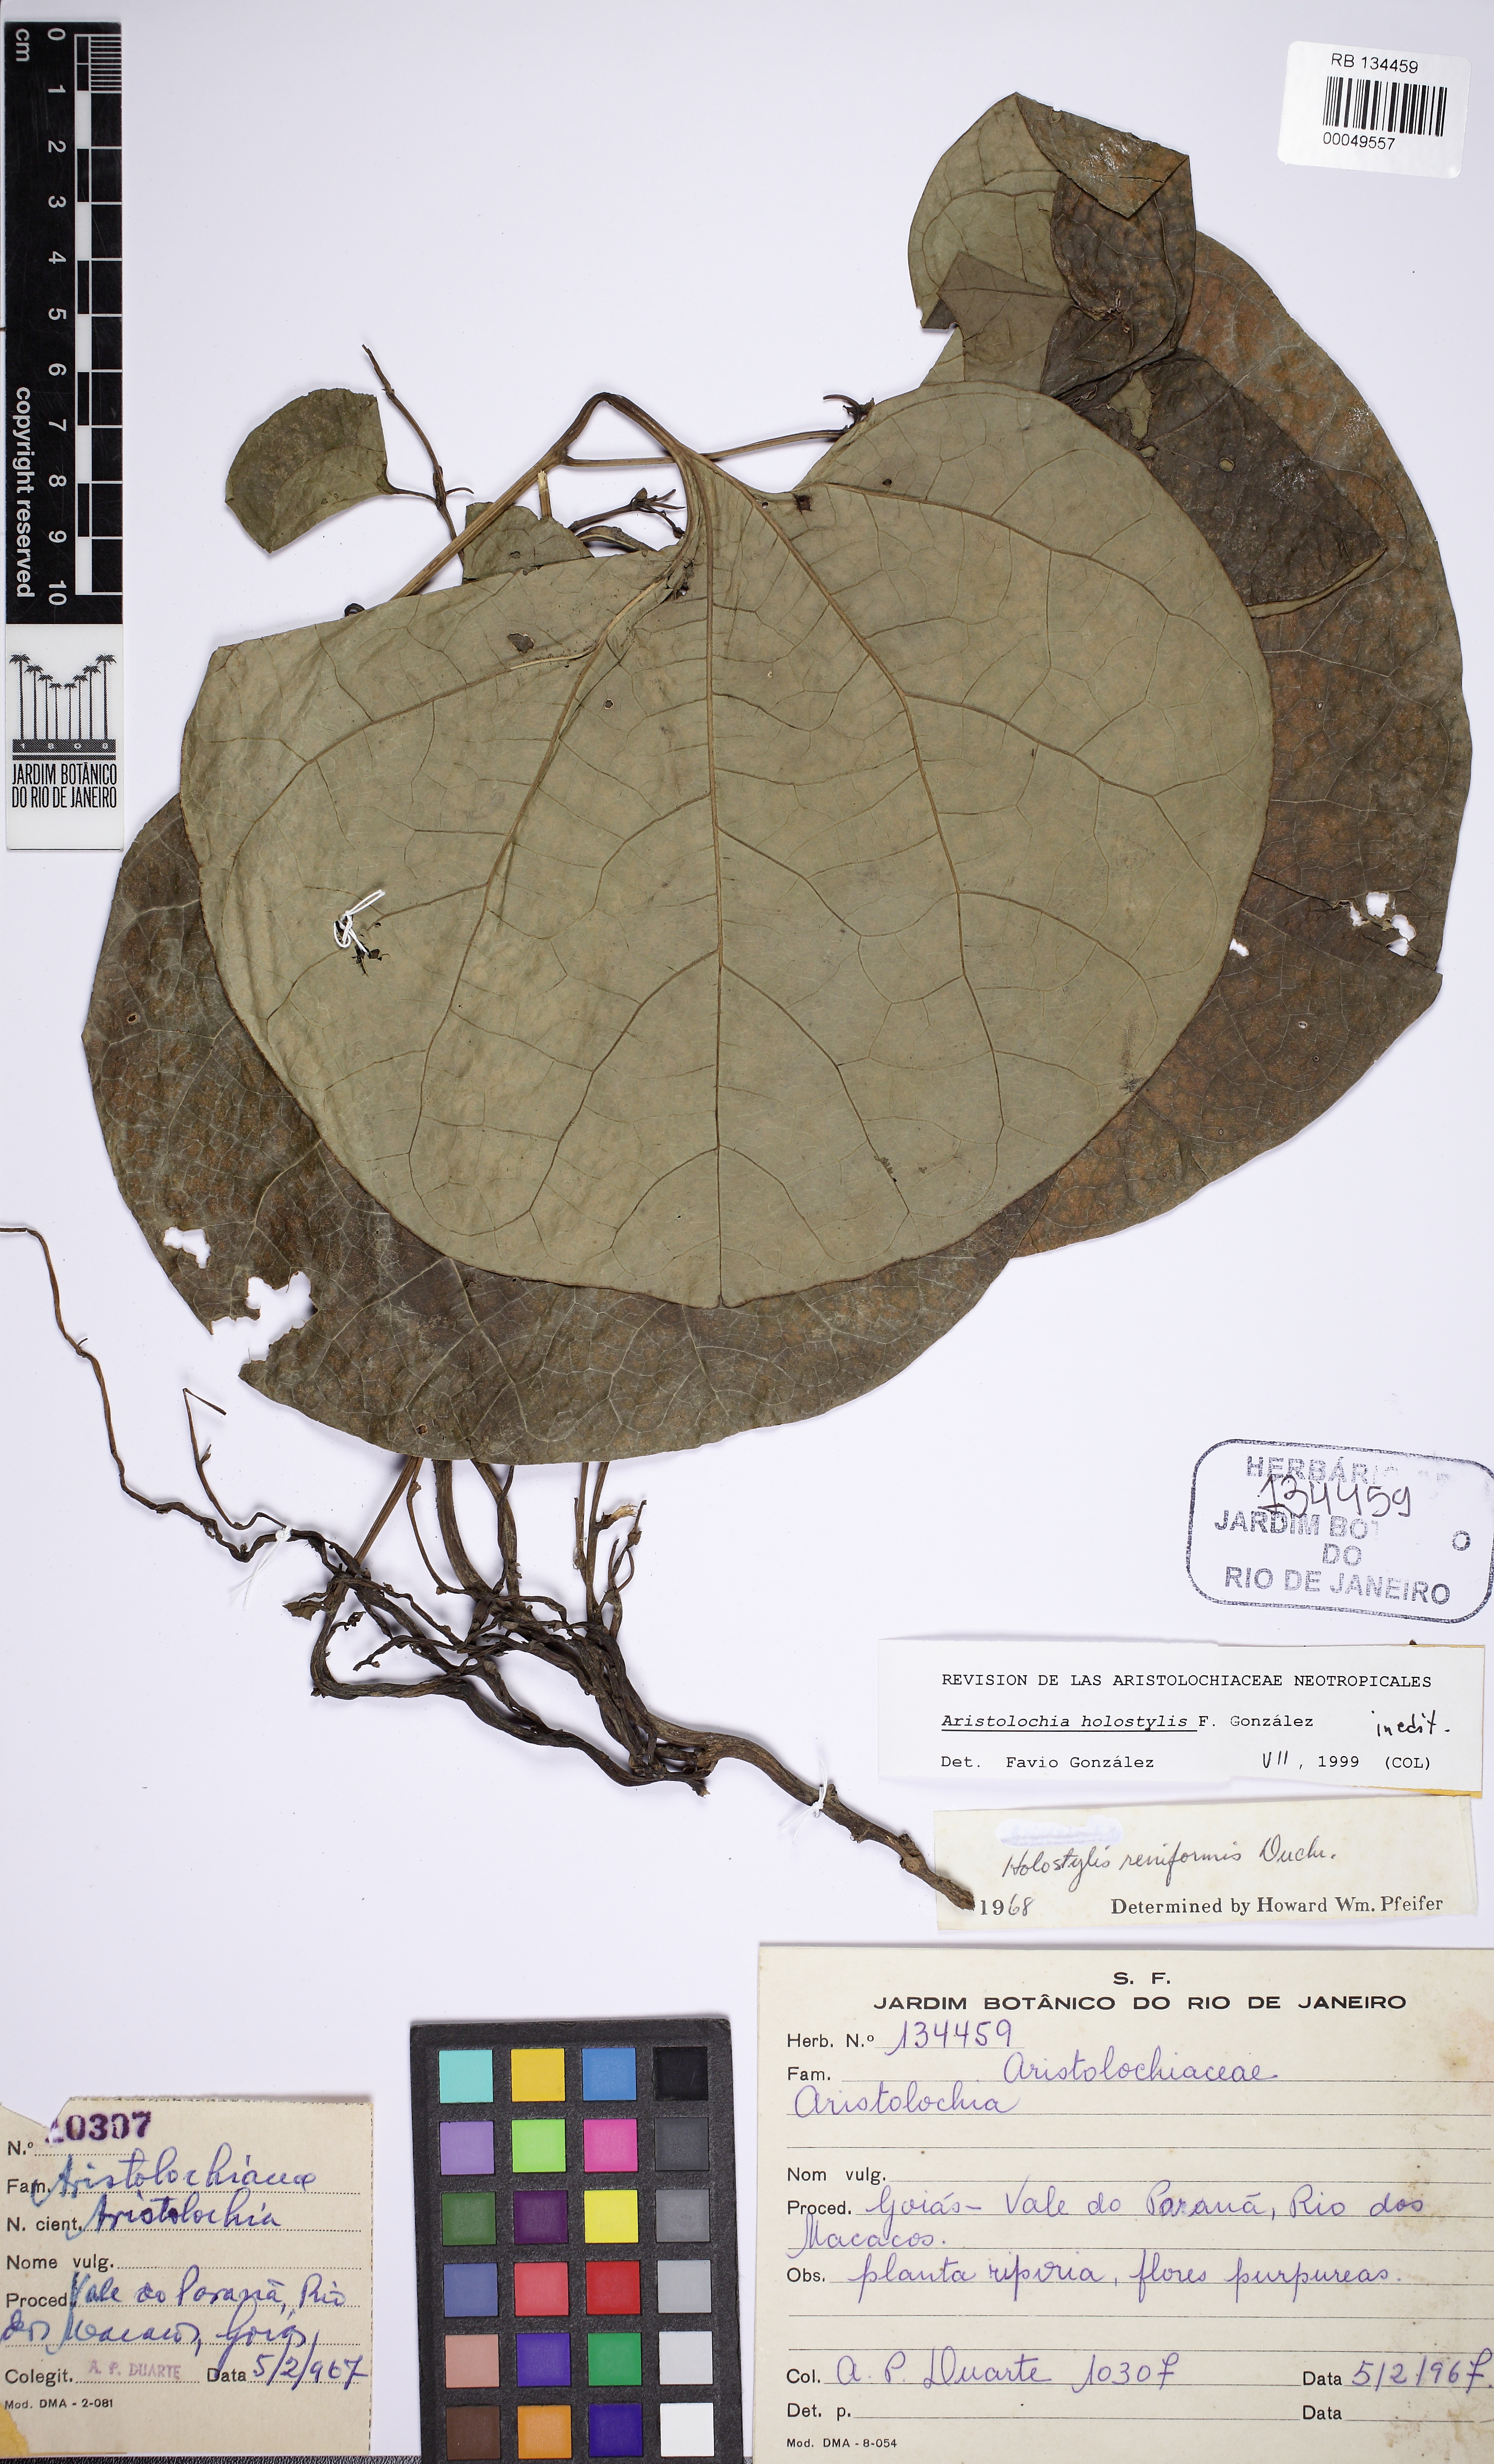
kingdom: Plantae
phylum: Tracheophyta
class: Magnoliopsida
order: Piperales
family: Aristolochiaceae
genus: Aristolochia
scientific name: Aristolochia holostylis
